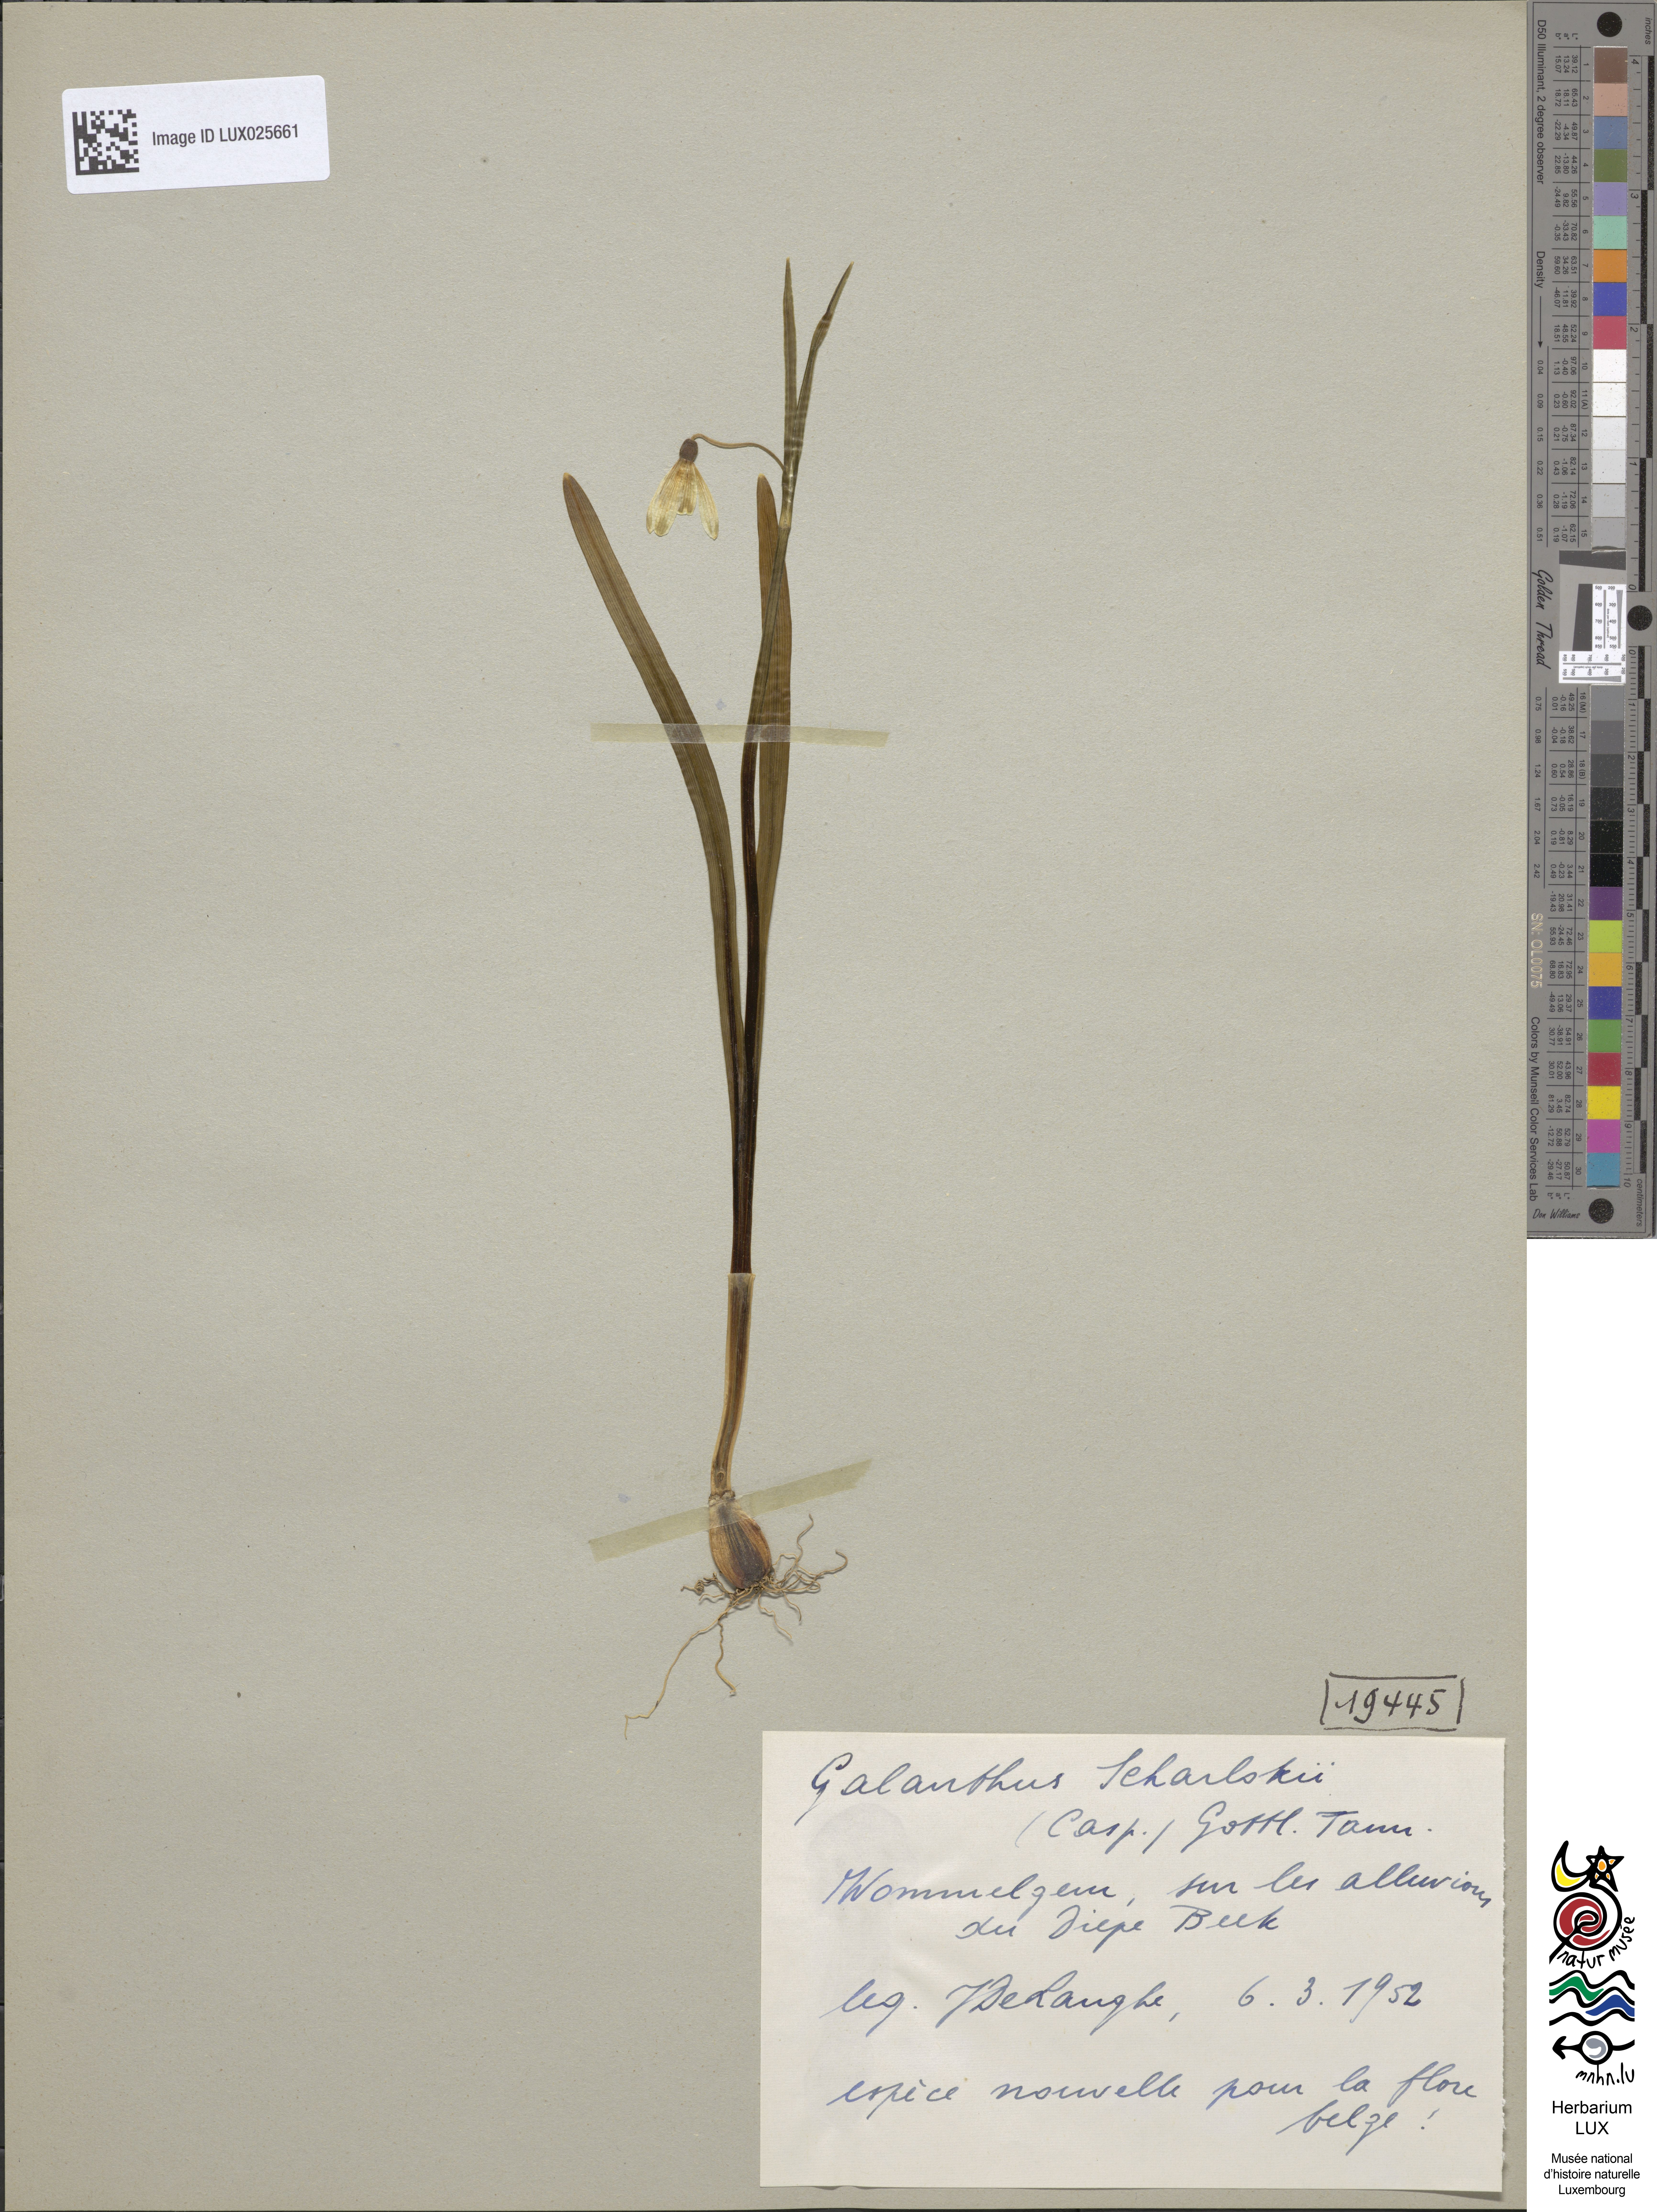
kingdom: Plantae
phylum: Tracheophyta
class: Liliopsida
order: Asparagales
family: Amaryllidaceae
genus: Galanthus
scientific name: Galanthus nivalis
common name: Snowdrop
